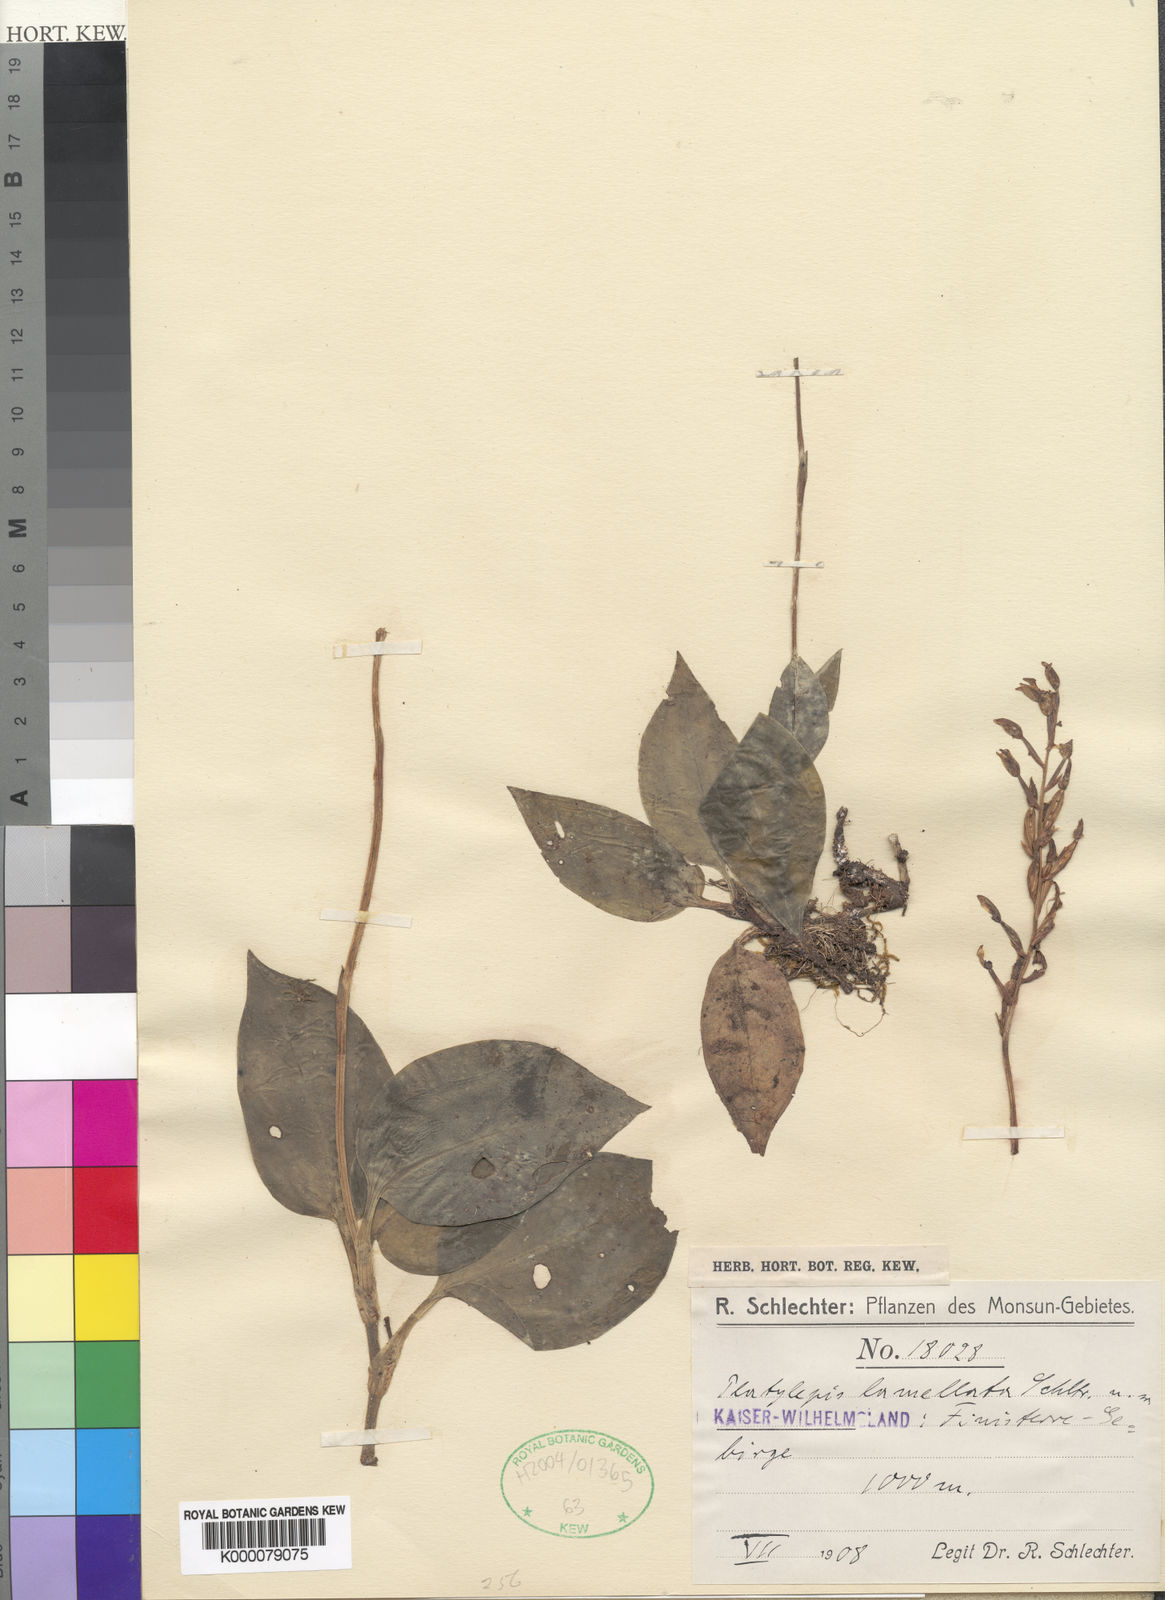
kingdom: Plantae
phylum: Tracheophyta
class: Liliopsida
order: Asparagales
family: Orchidaceae
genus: Platylepis
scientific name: Platylepis constricta
